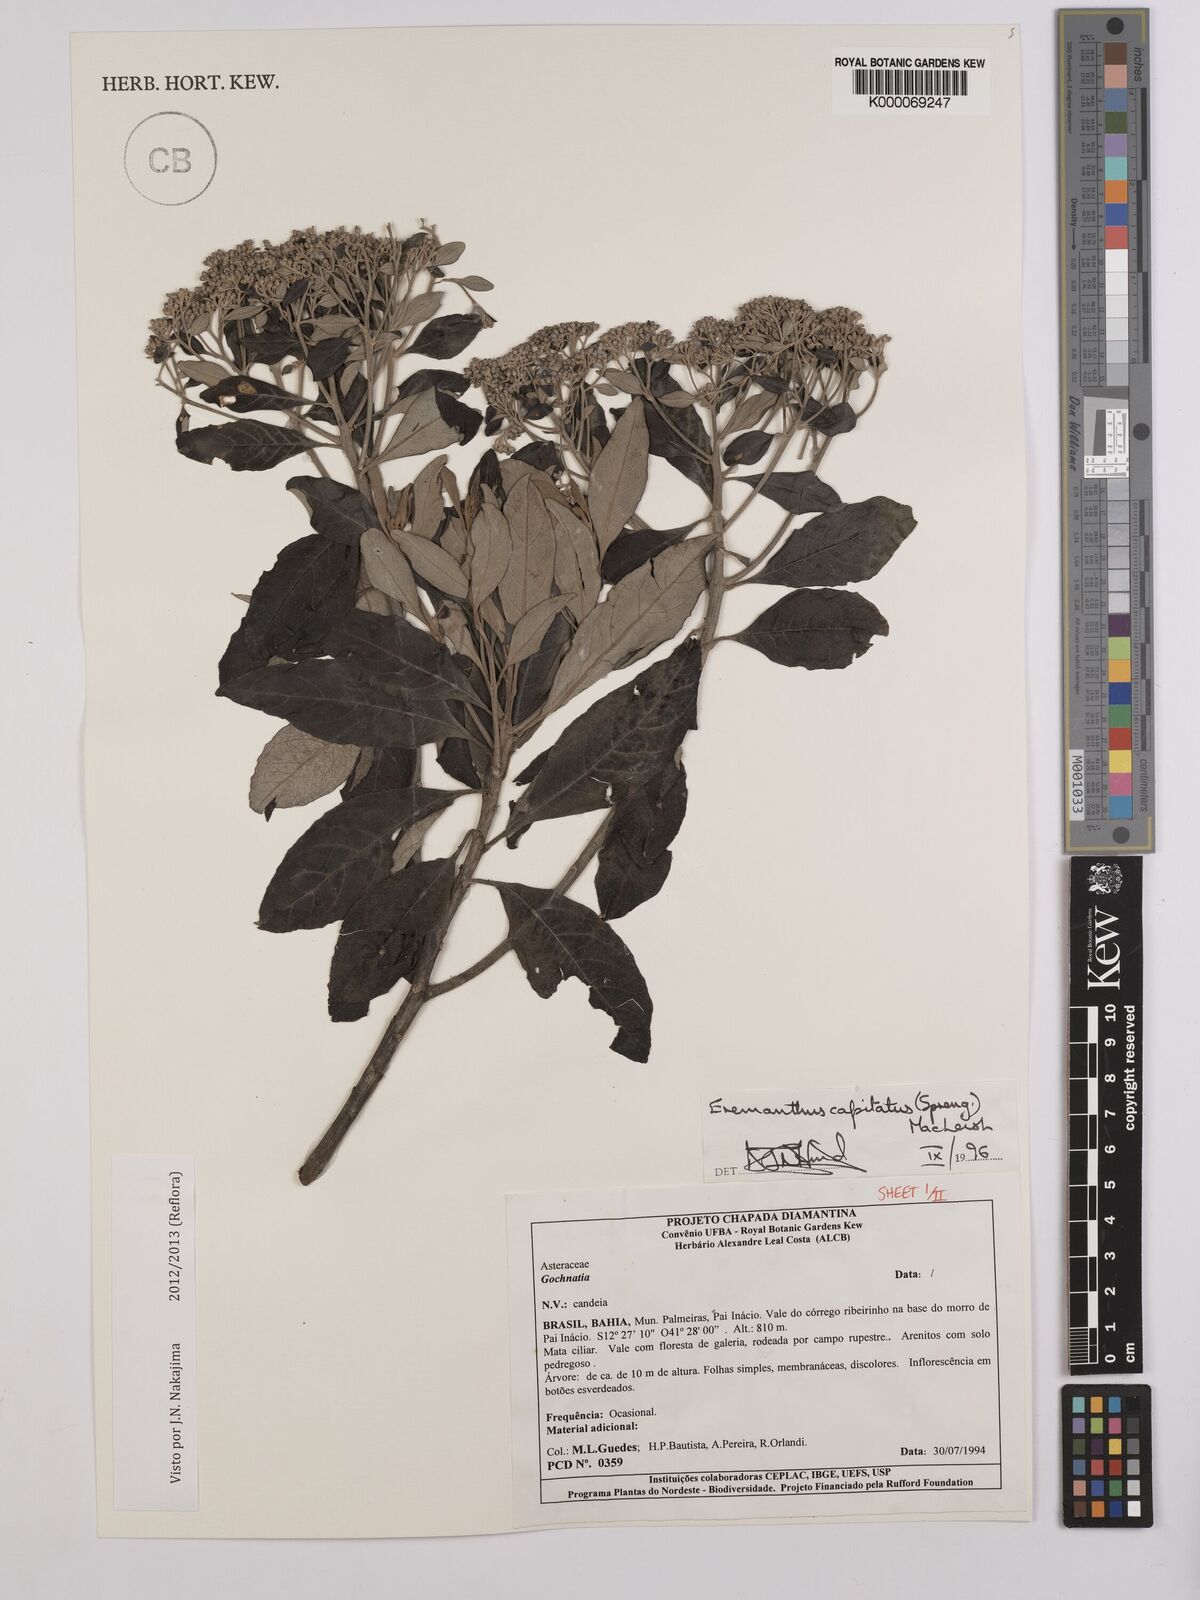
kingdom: Plantae
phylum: Tracheophyta
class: Magnoliopsida
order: Asterales
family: Asteraceae
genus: Eremanthus
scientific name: Eremanthus capitatus
